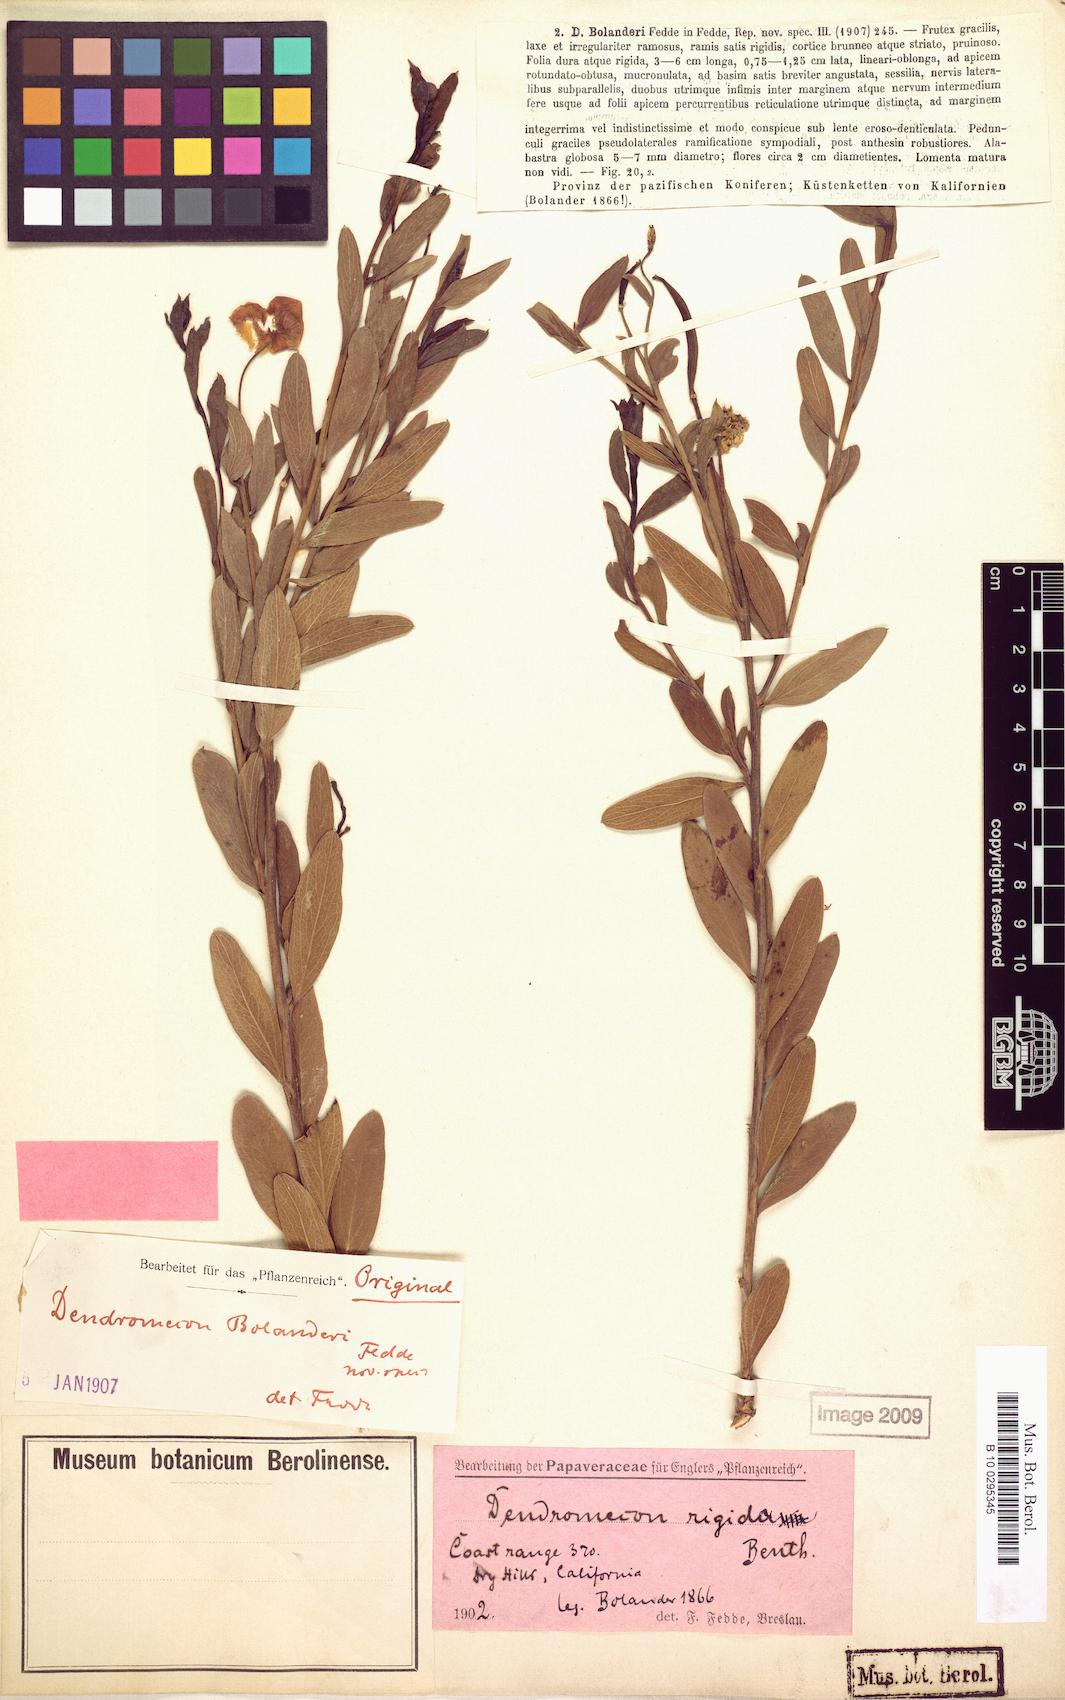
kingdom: Plantae
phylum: Tracheophyta
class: Magnoliopsida
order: Ranunculales
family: Papaveraceae
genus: Dendromecon
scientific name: Dendromecon rigida
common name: Tree poppy
